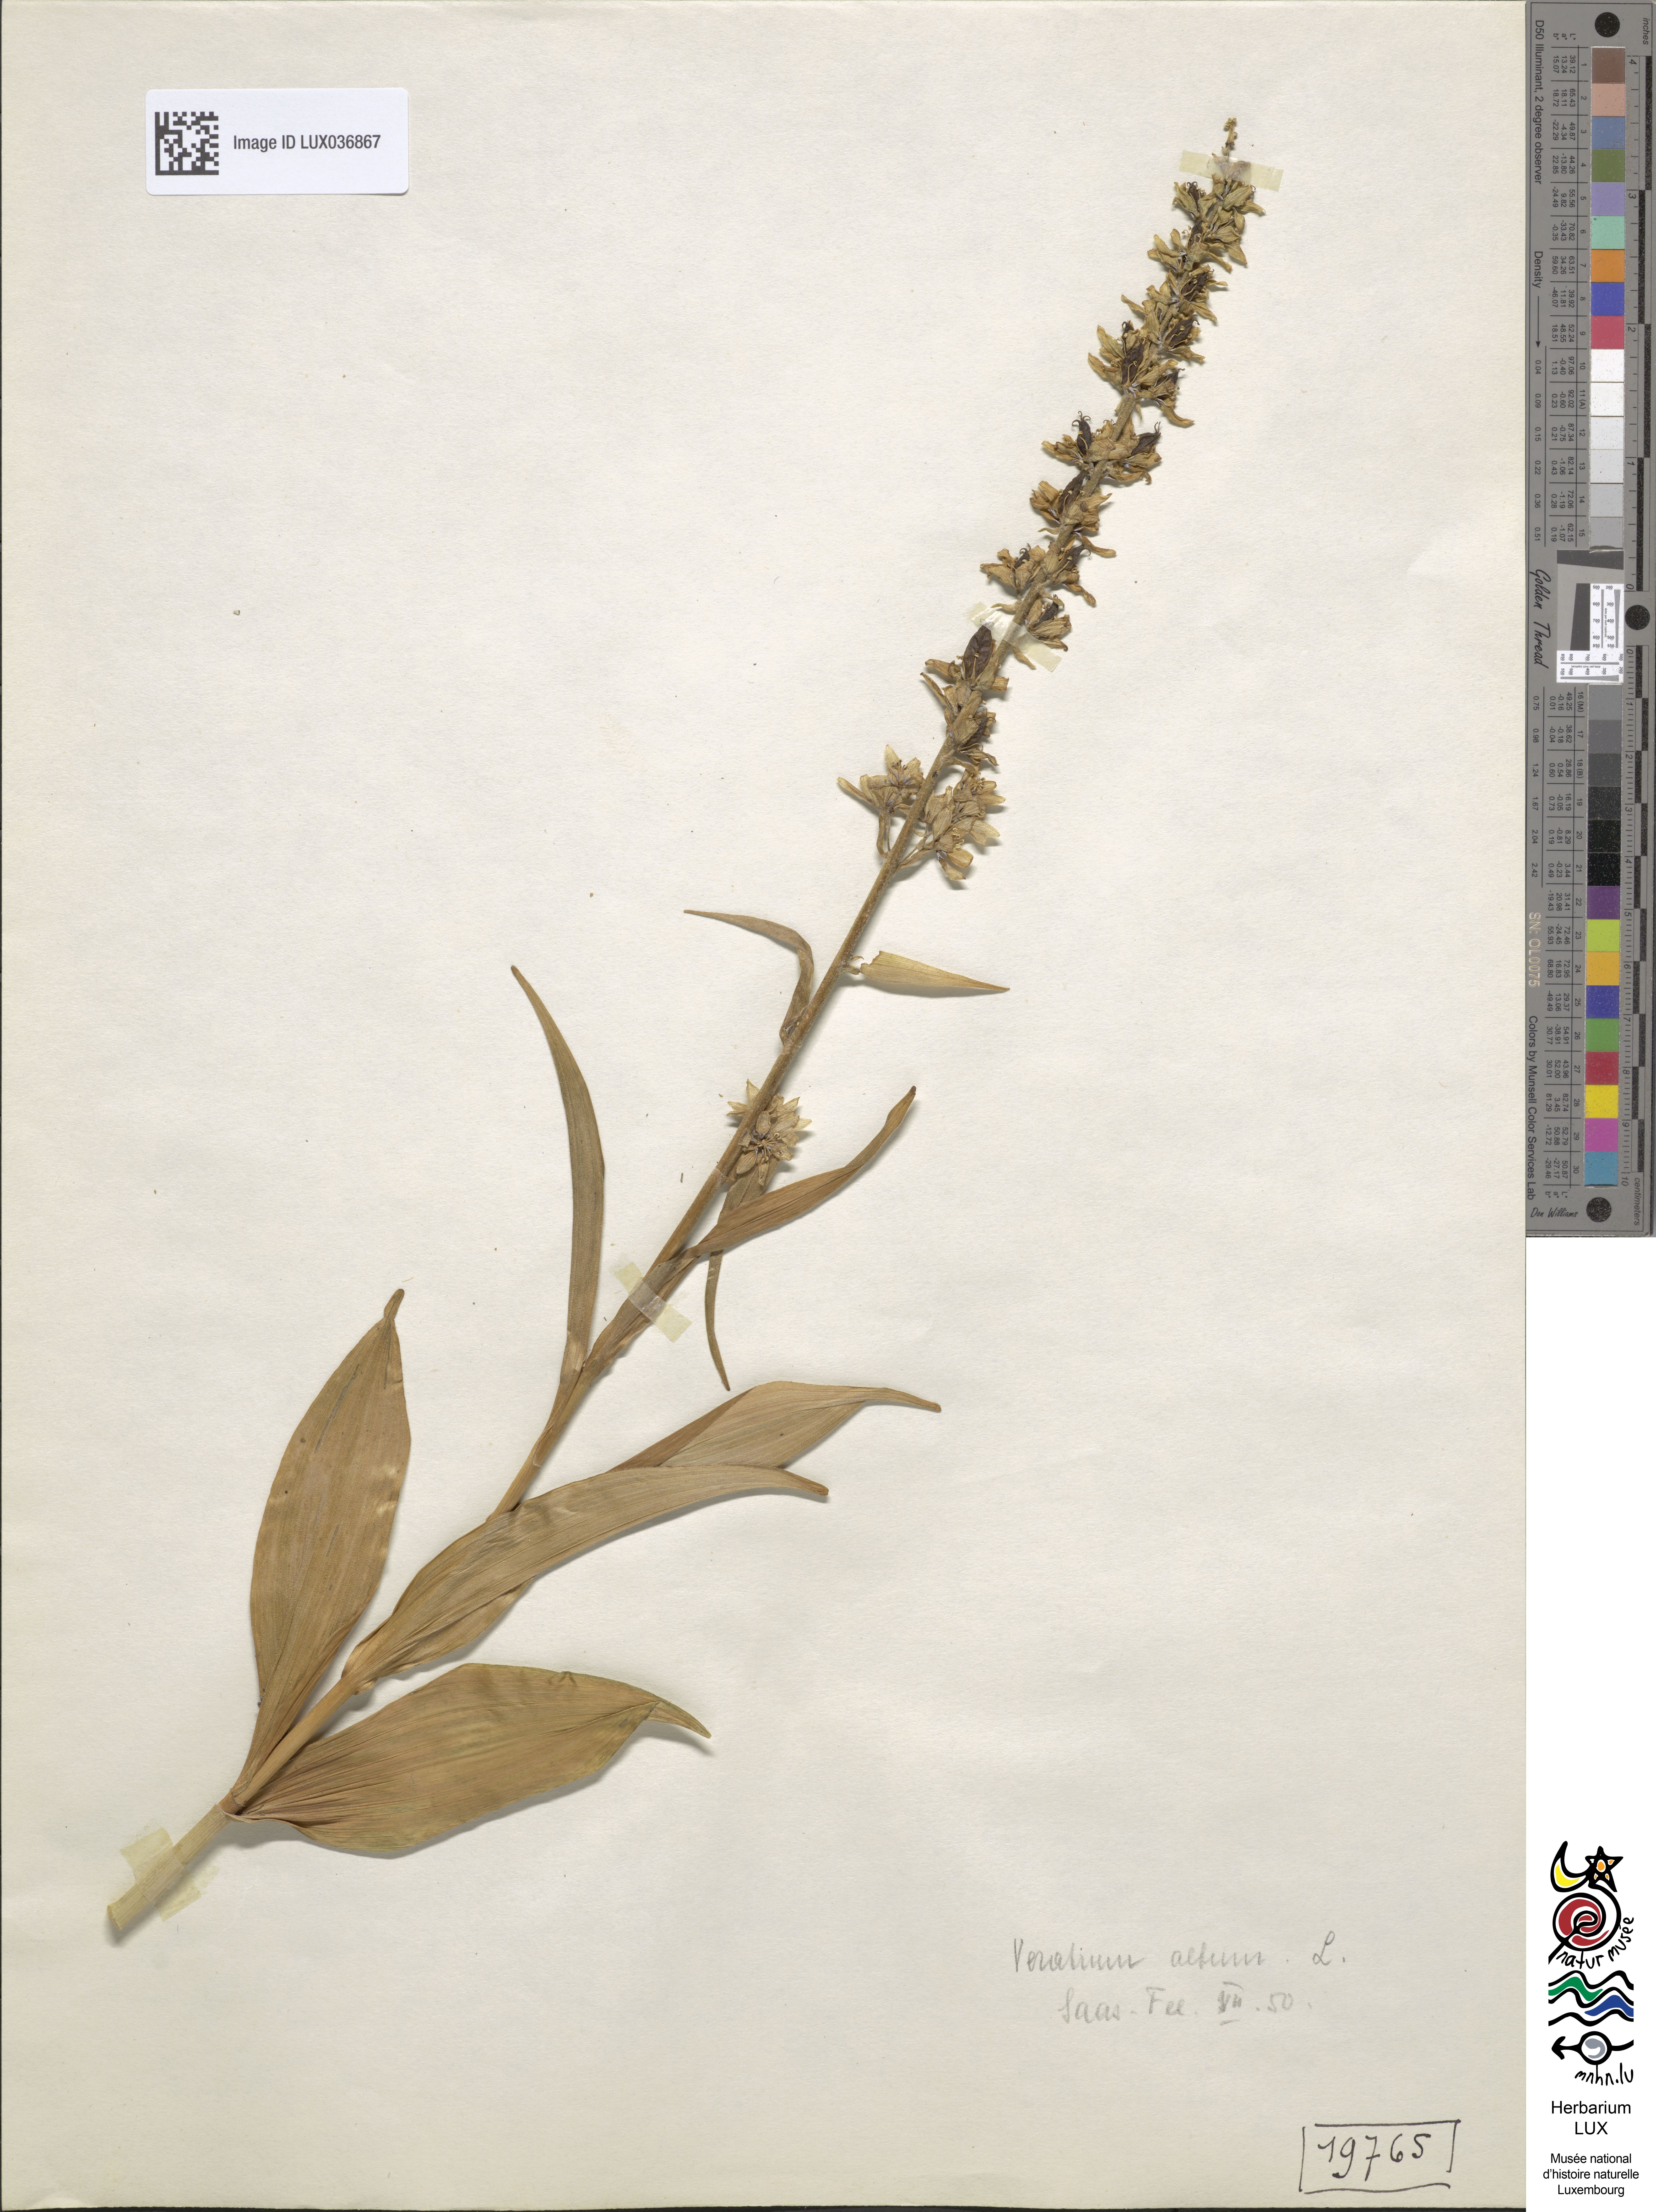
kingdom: Plantae
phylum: Tracheophyta
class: Liliopsida
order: Liliales
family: Melanthiaceae
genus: Veratrum
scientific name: Veratrum album
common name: White veratrum
